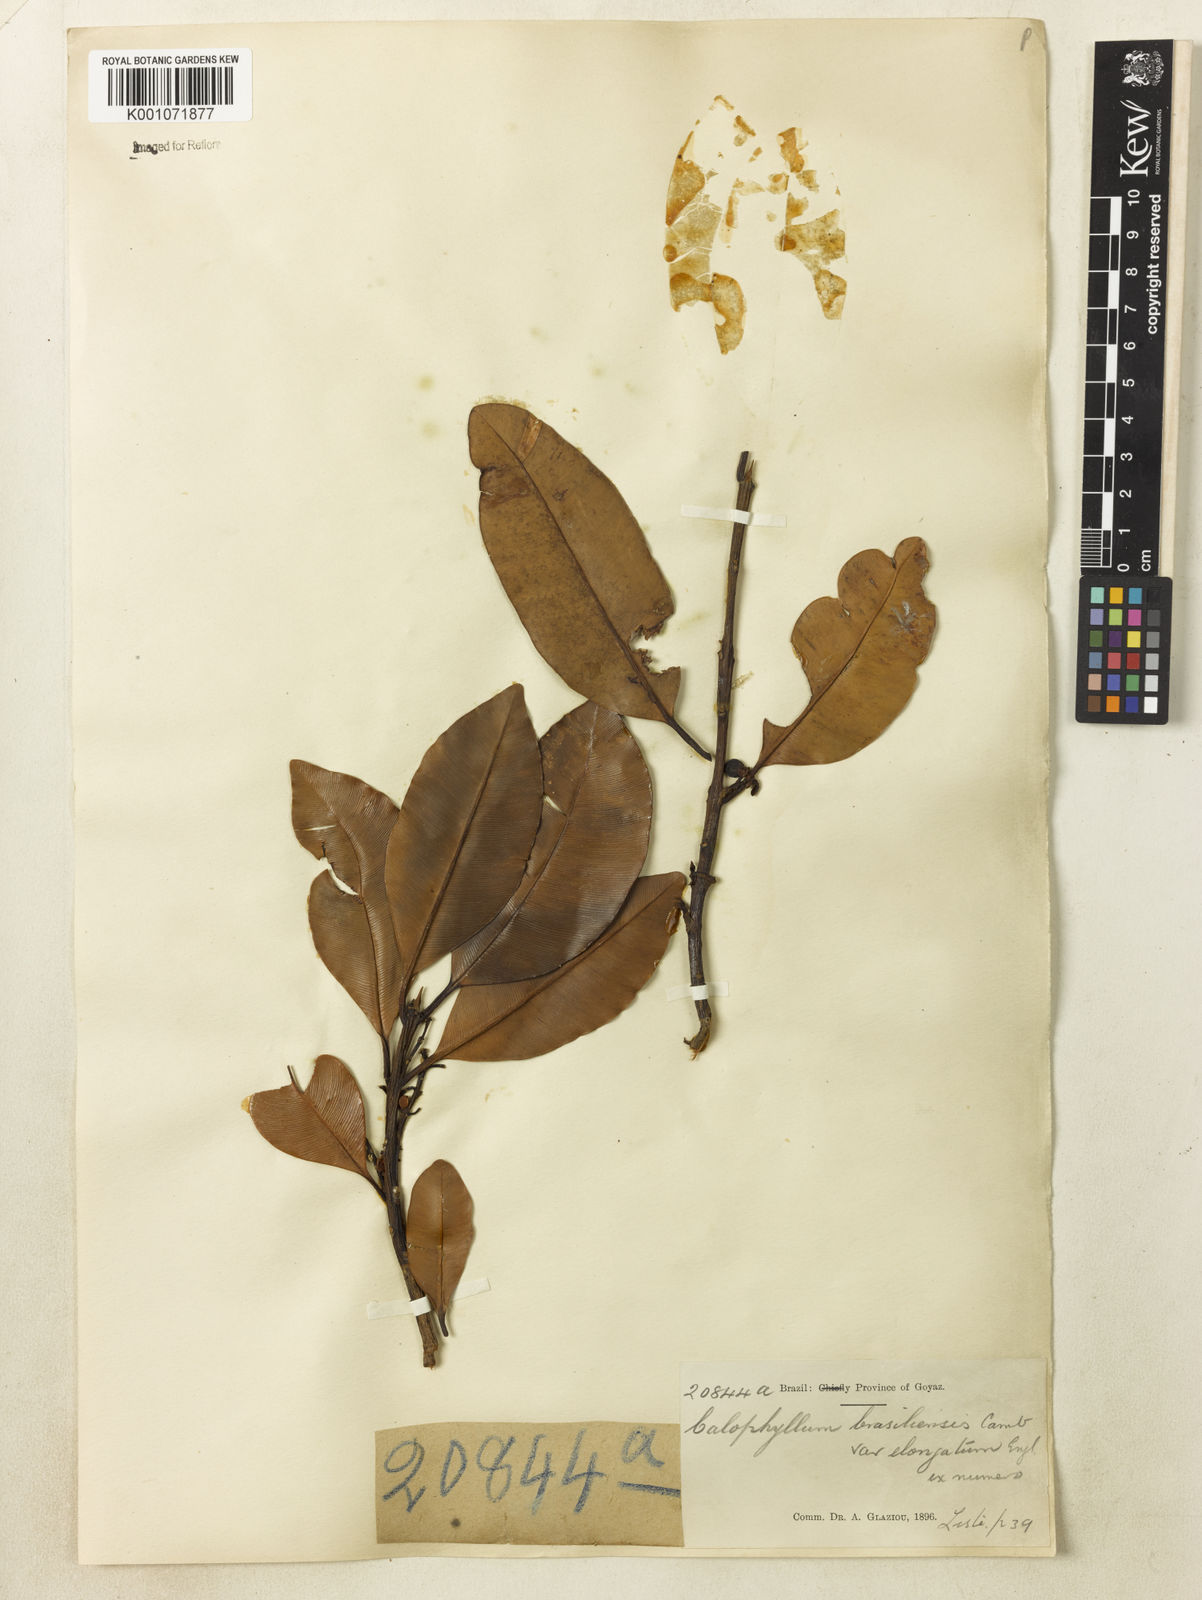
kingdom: Plantae
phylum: Tracheophyta
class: Magnoliopsida
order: Malpighiales
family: Calophyllaceae
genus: Calophyllum
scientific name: Calophyllum brasiliense
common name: Santa maria
